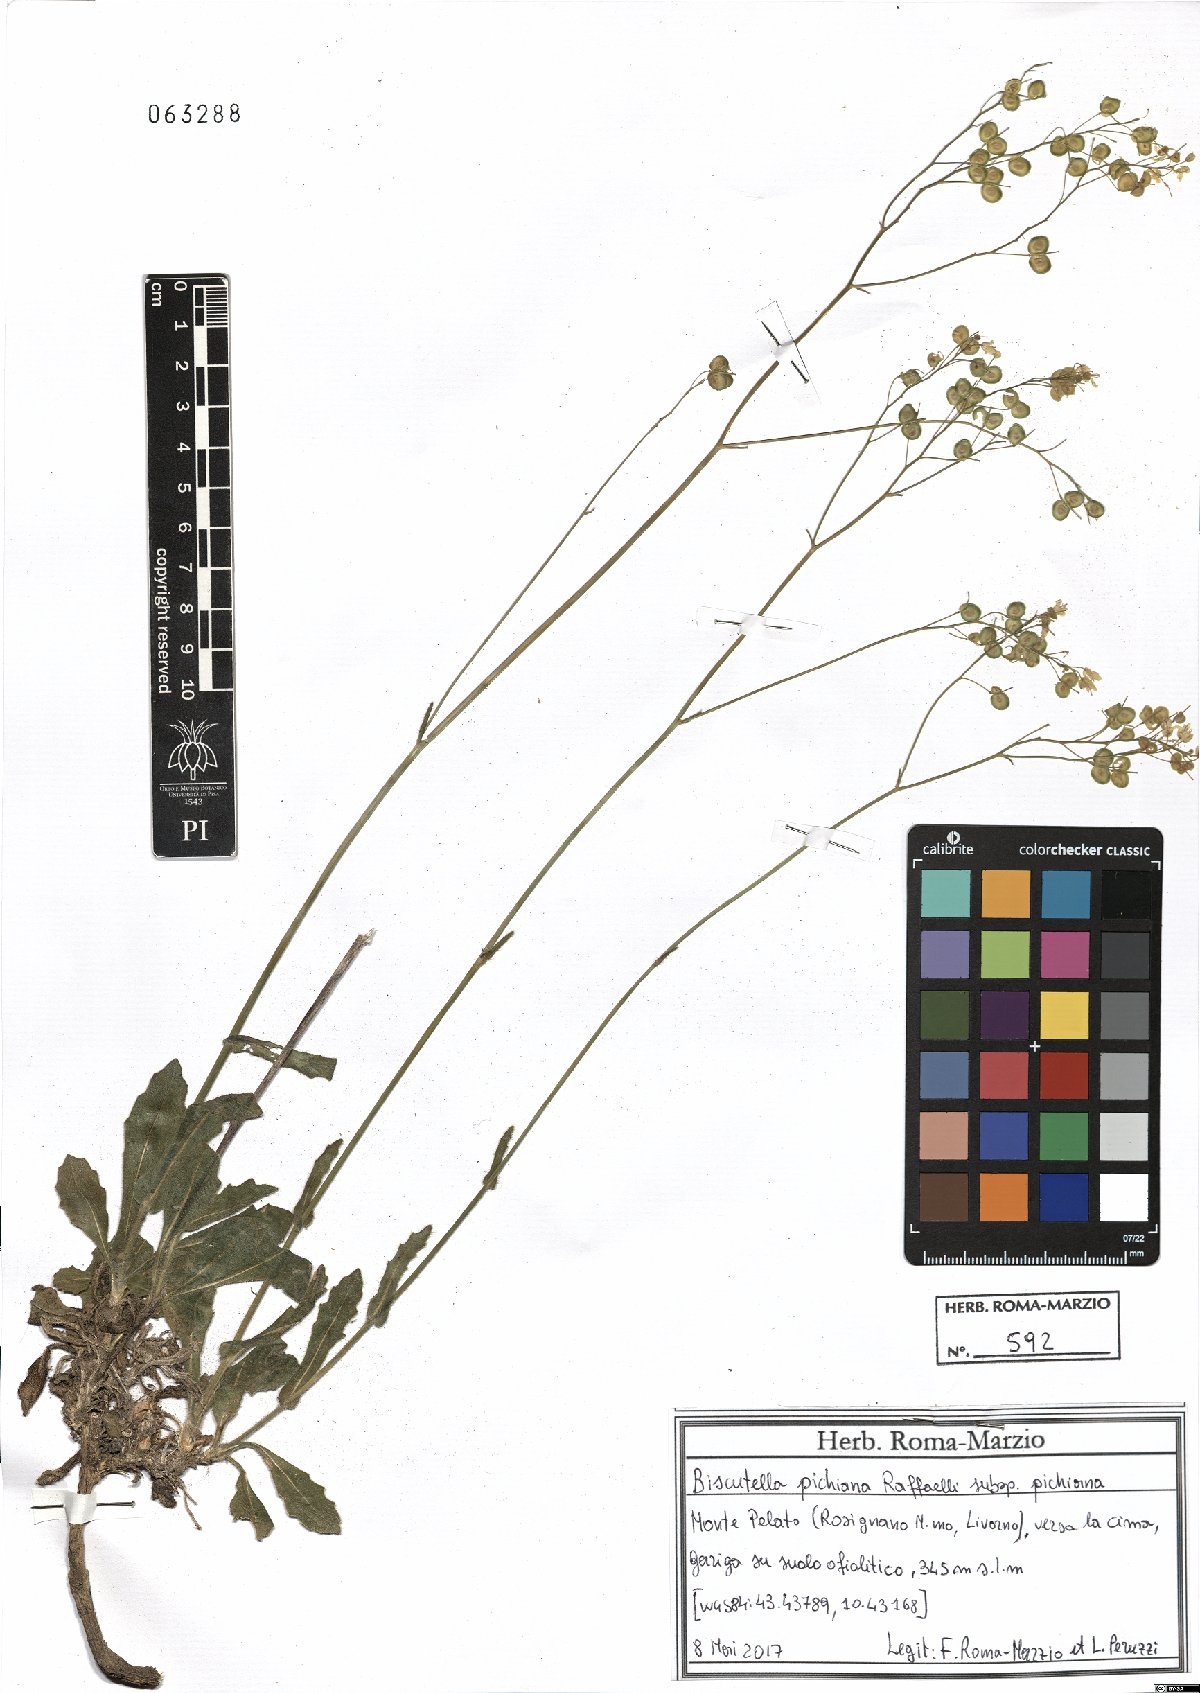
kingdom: Plantae
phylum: Tracheophyta
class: Magnoliopsida
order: Brassicales
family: Brassicaceae
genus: Biscutella
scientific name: Biscutella pichiana
